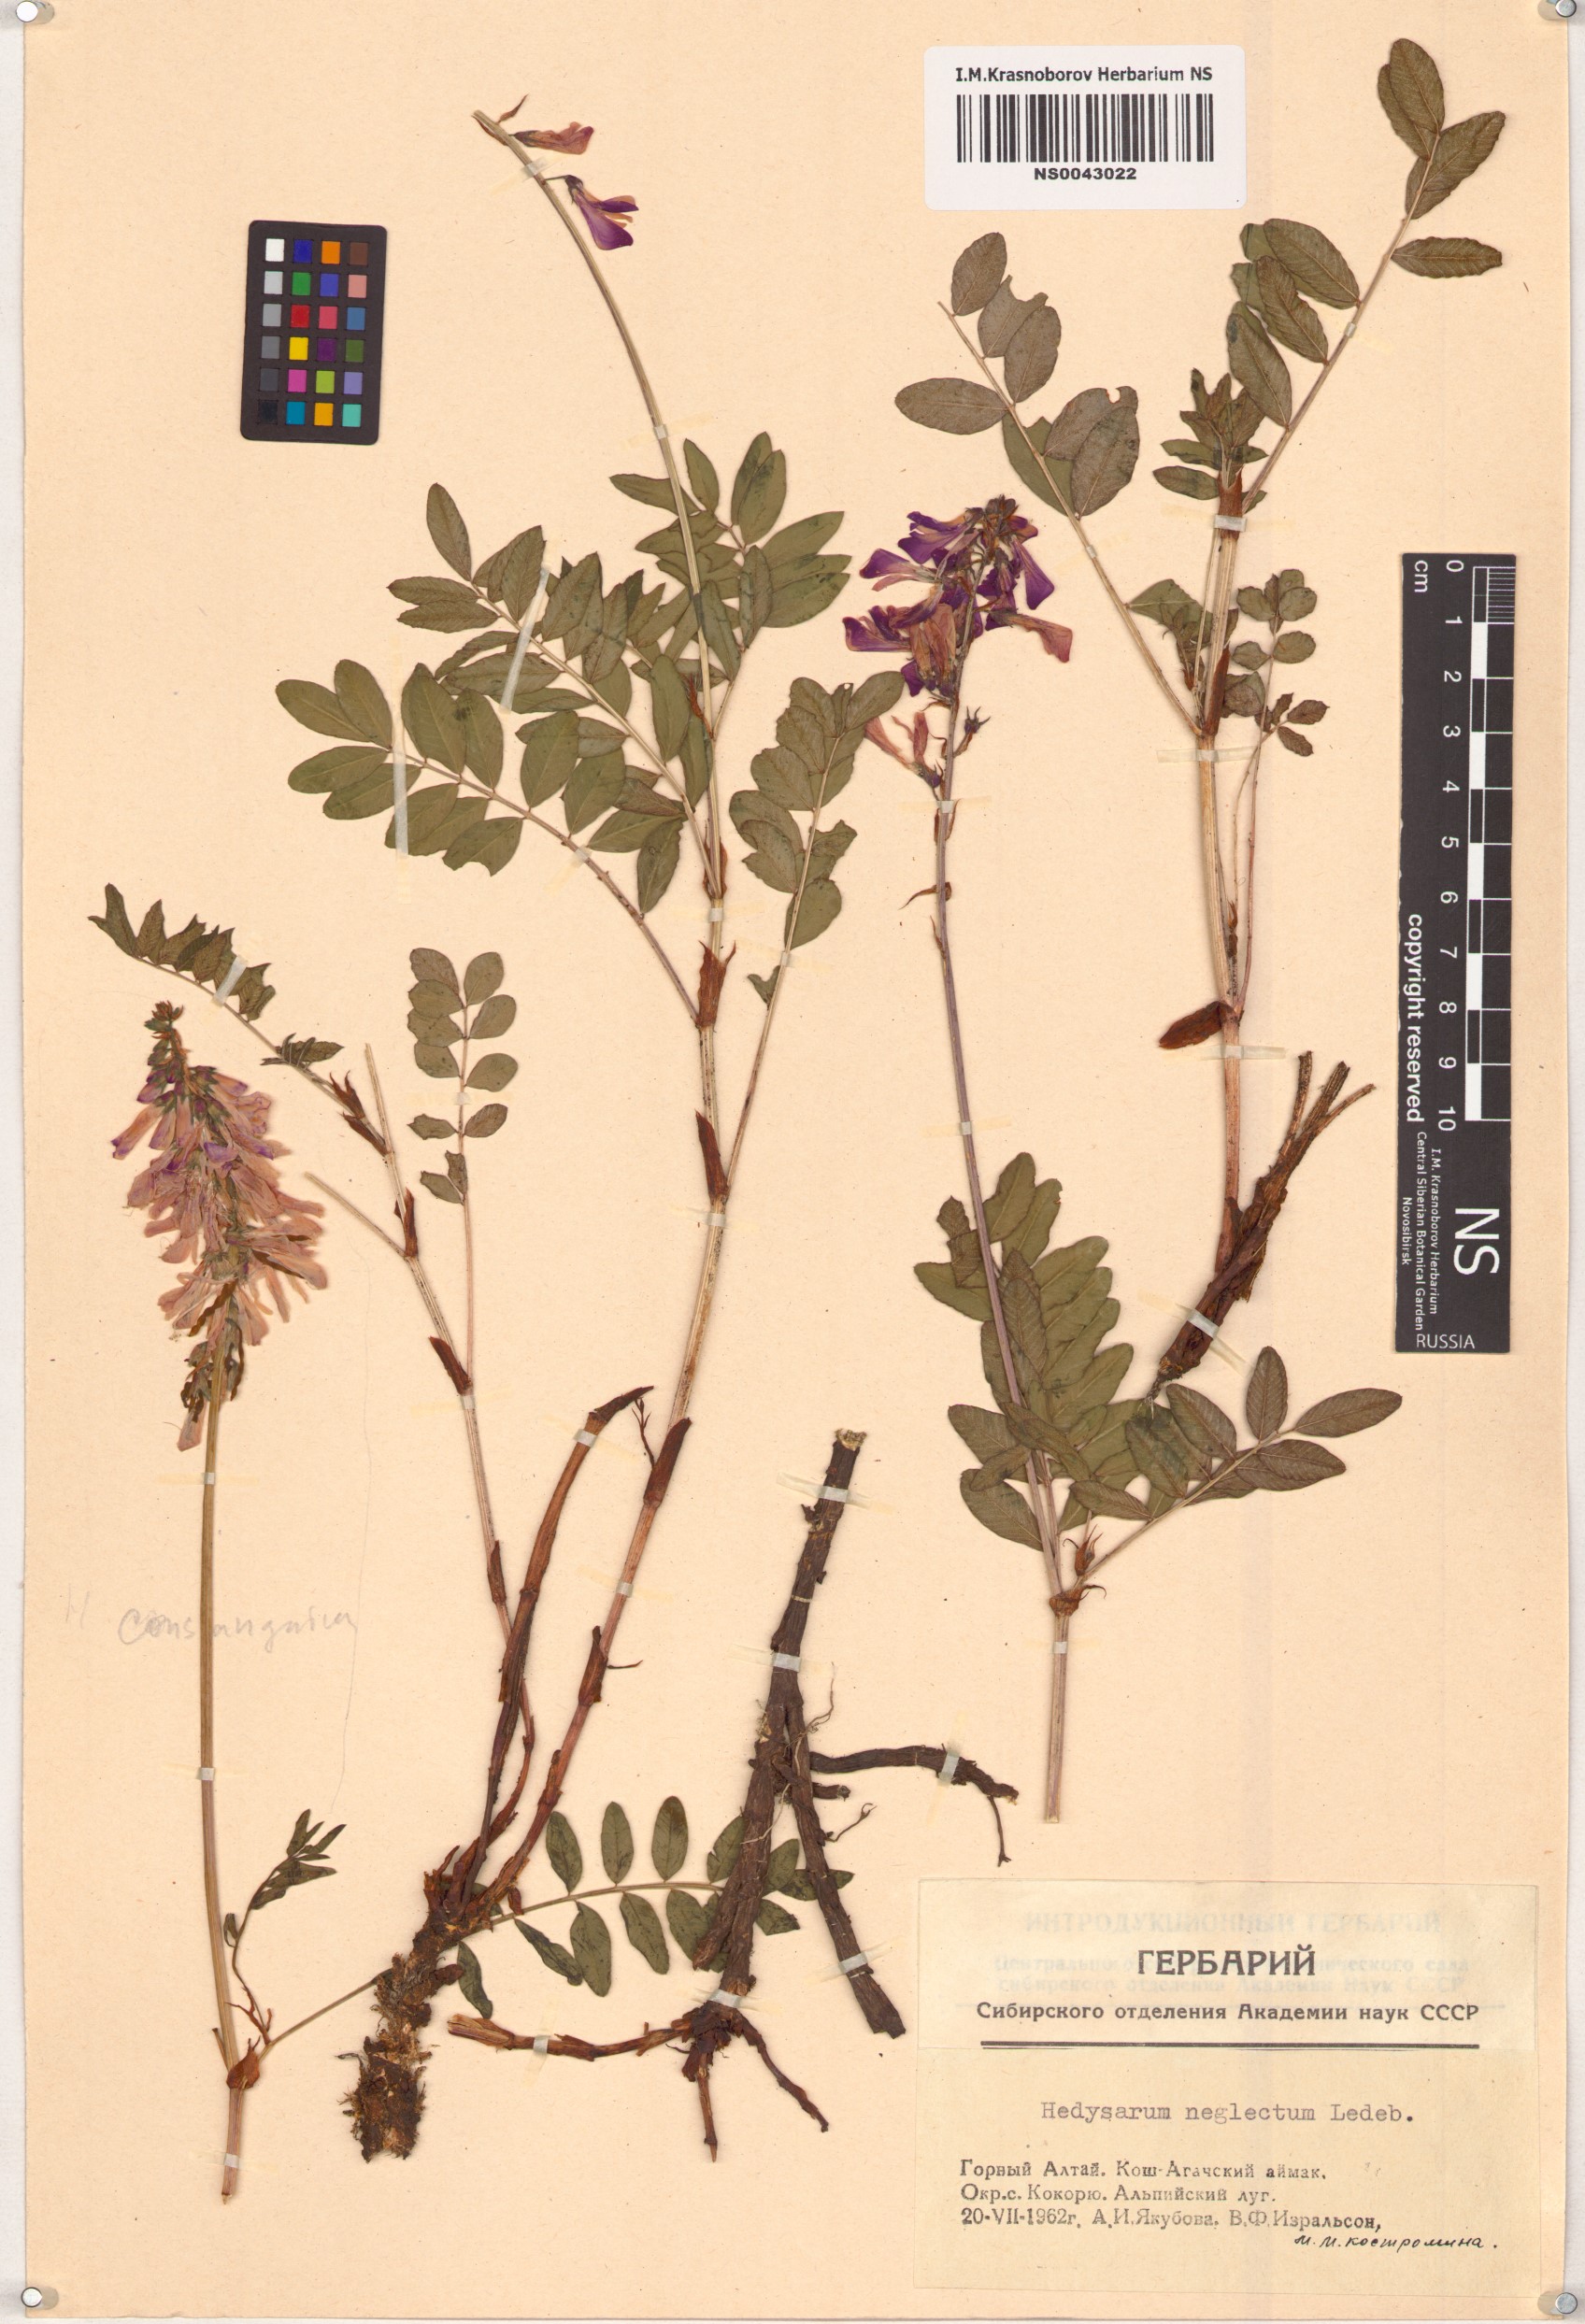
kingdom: Plantae
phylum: Tracheophyta
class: Magnoliopsida
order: Fabales
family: Fabaceae
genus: Hedysarum
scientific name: Hedysarum neglectum
